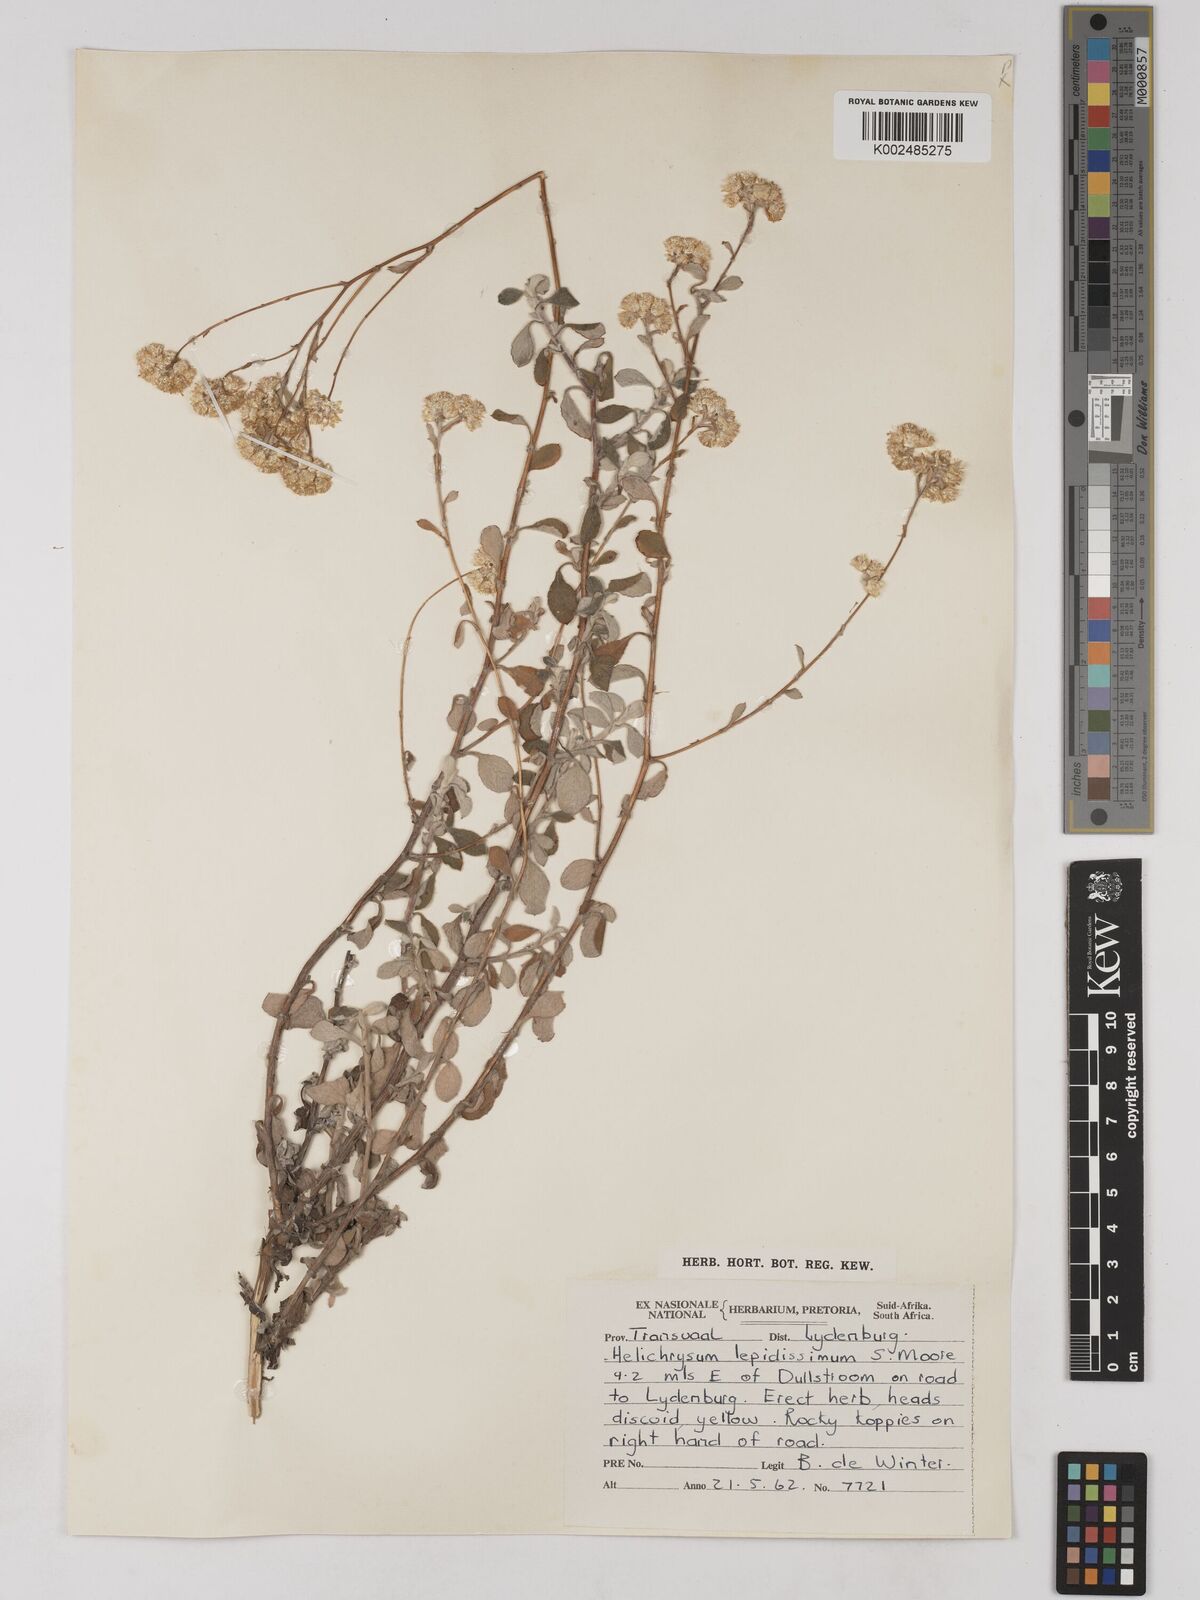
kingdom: Plantae
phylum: Tracheophyta
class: Magnoliopsida
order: Asterales
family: Asteraceae
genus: Helichrysum
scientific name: Helichrysum lepidissimum
